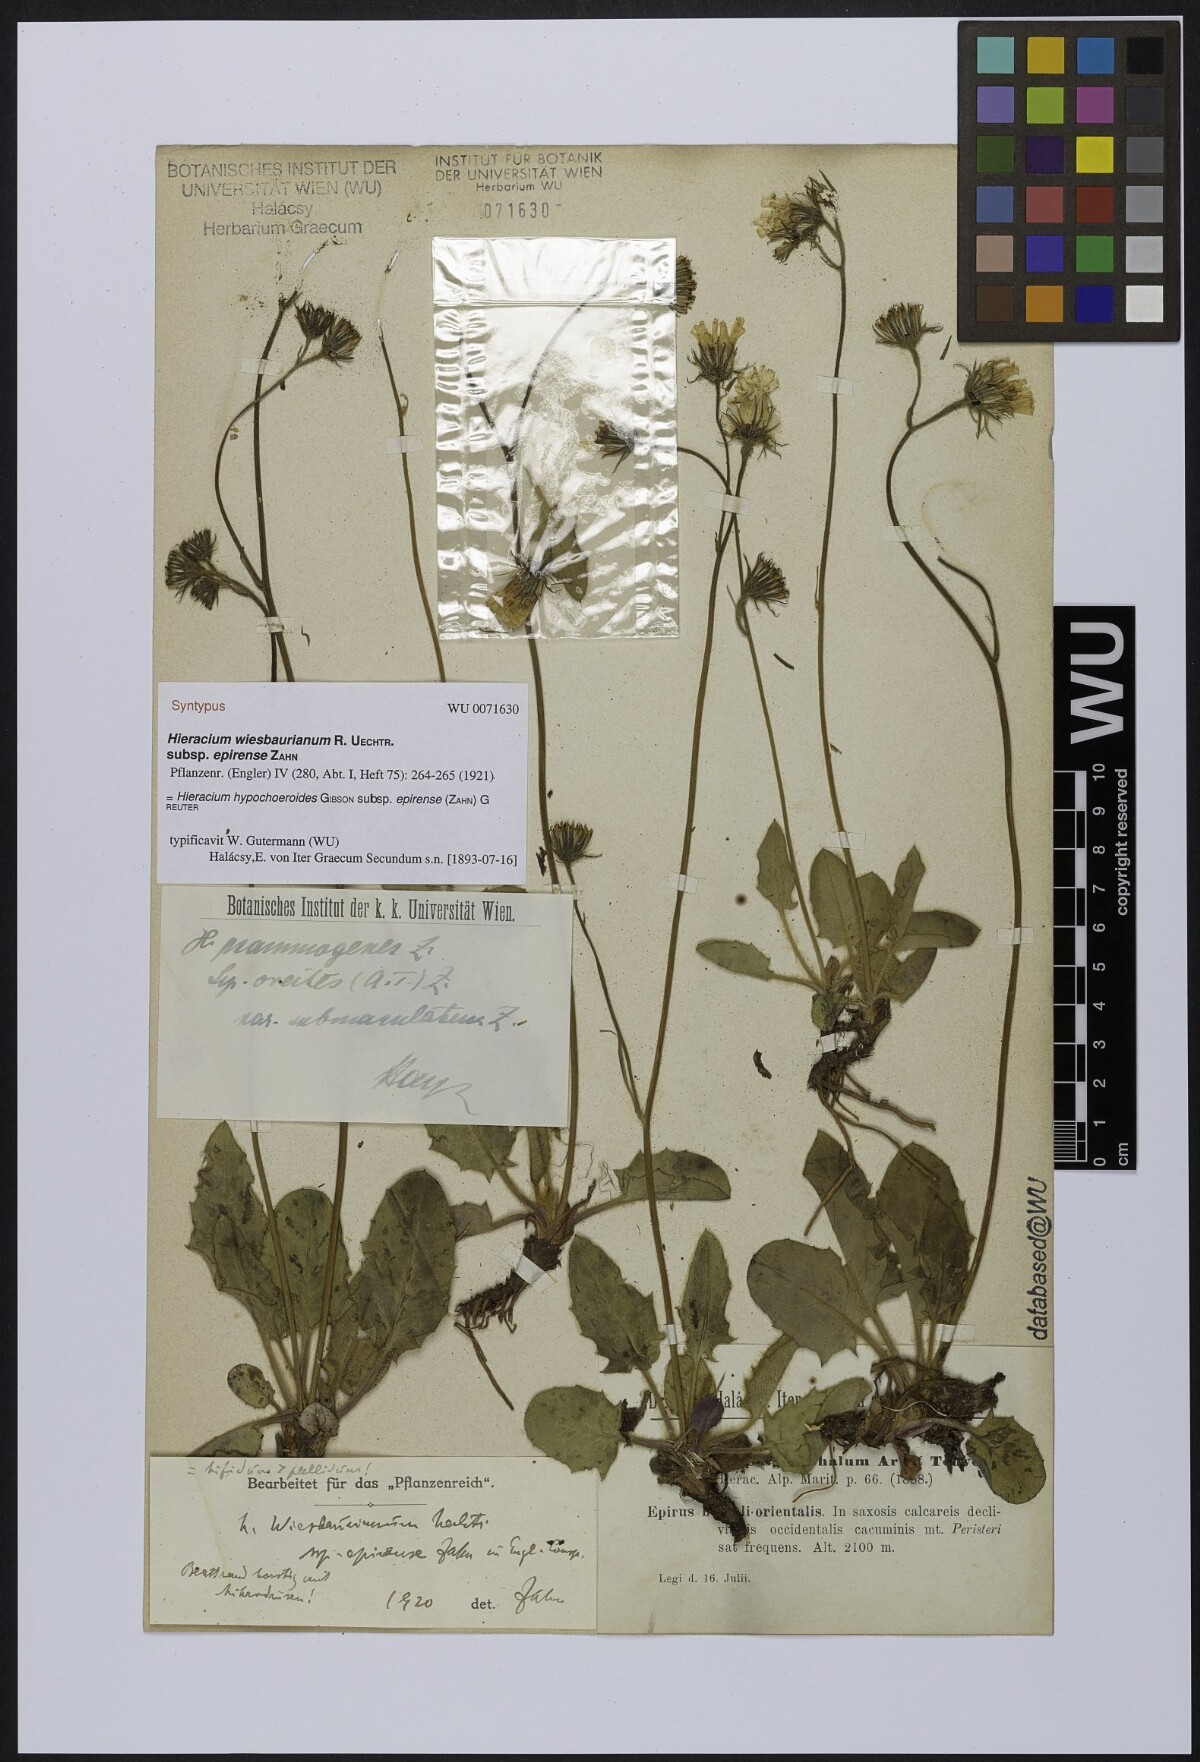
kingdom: Plantae
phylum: Tracheophyta
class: Magnoliopsida
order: Asterales
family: Asteraceae
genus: Hieracium
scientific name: Hieracium hypochoeroides
